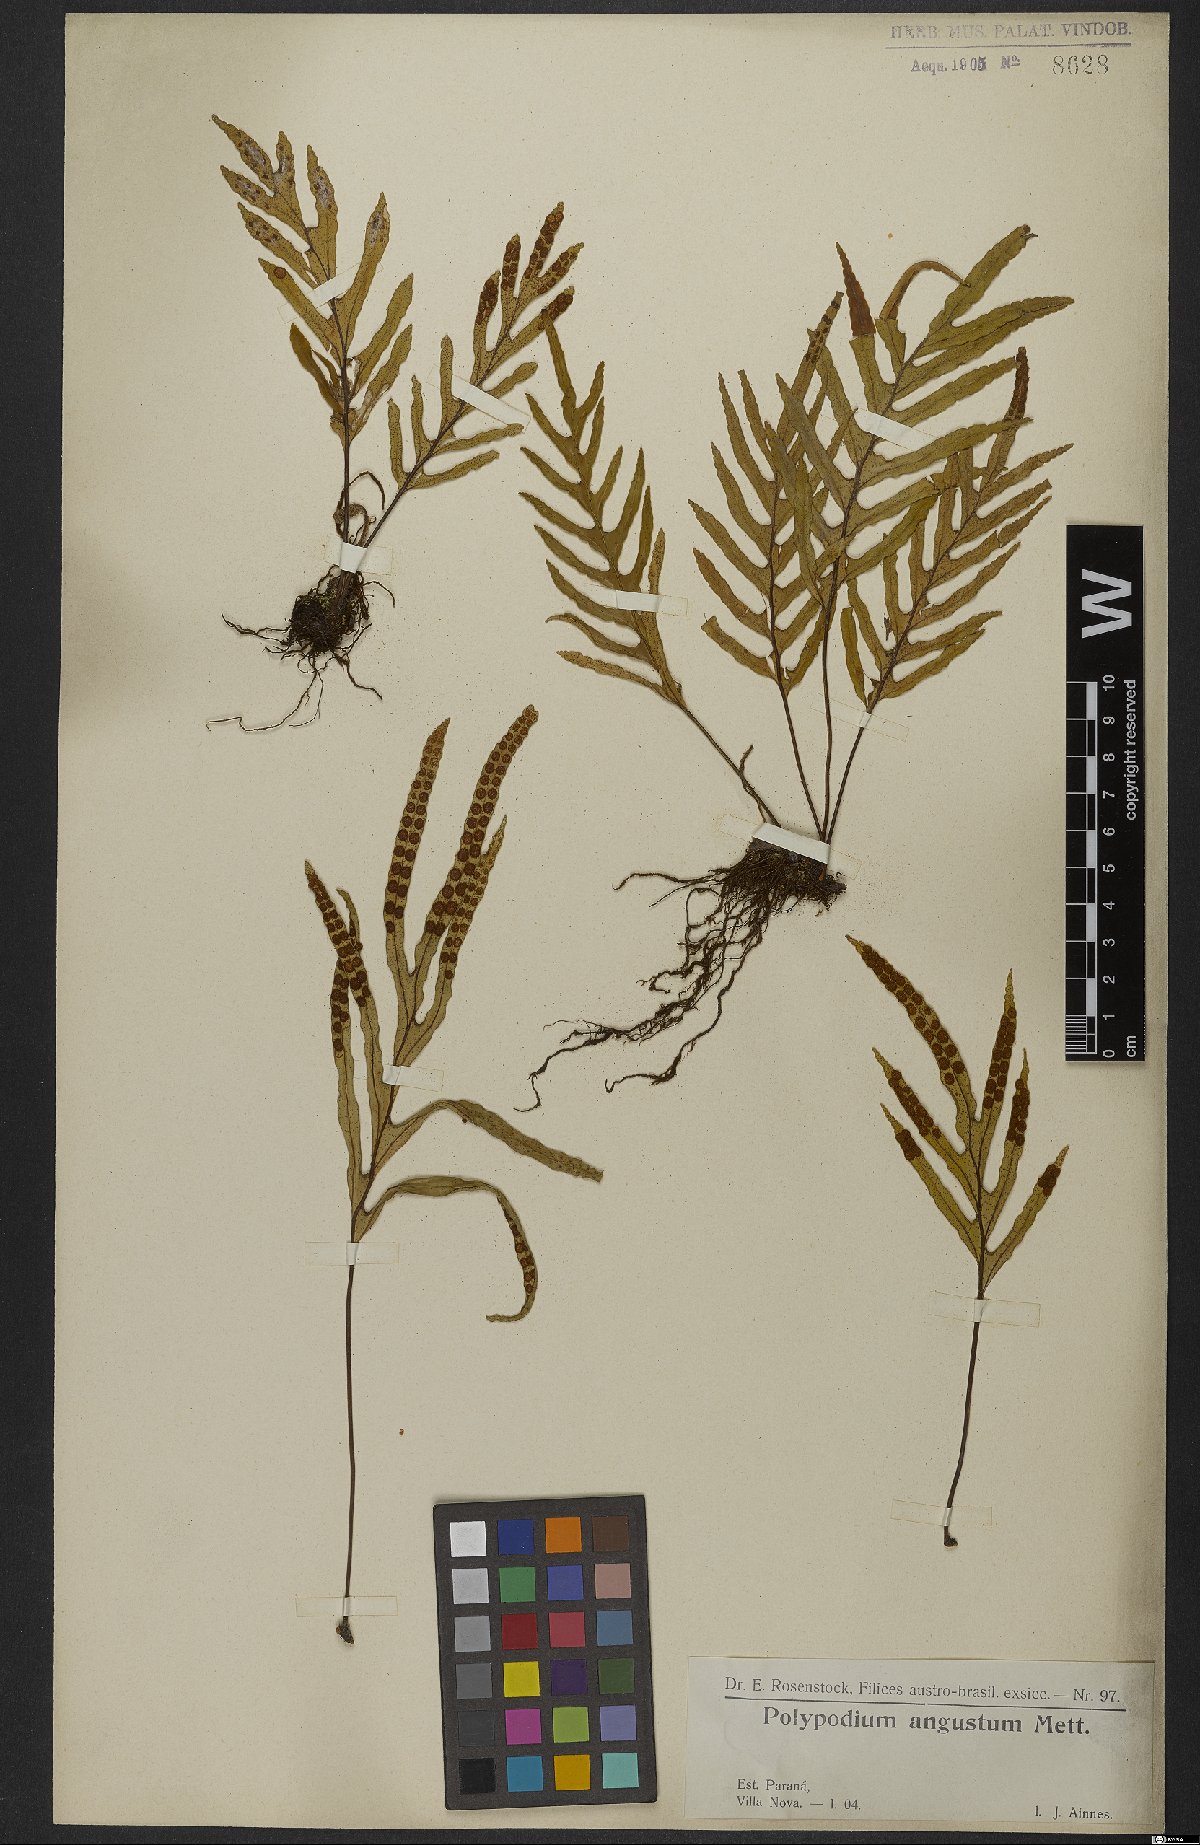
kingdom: Plantae
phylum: Tracheophyta
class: Polypodiopsida
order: Polypodiales
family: Polypodiaceae
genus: Pleopeltis
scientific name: Pleopeltis angusta
